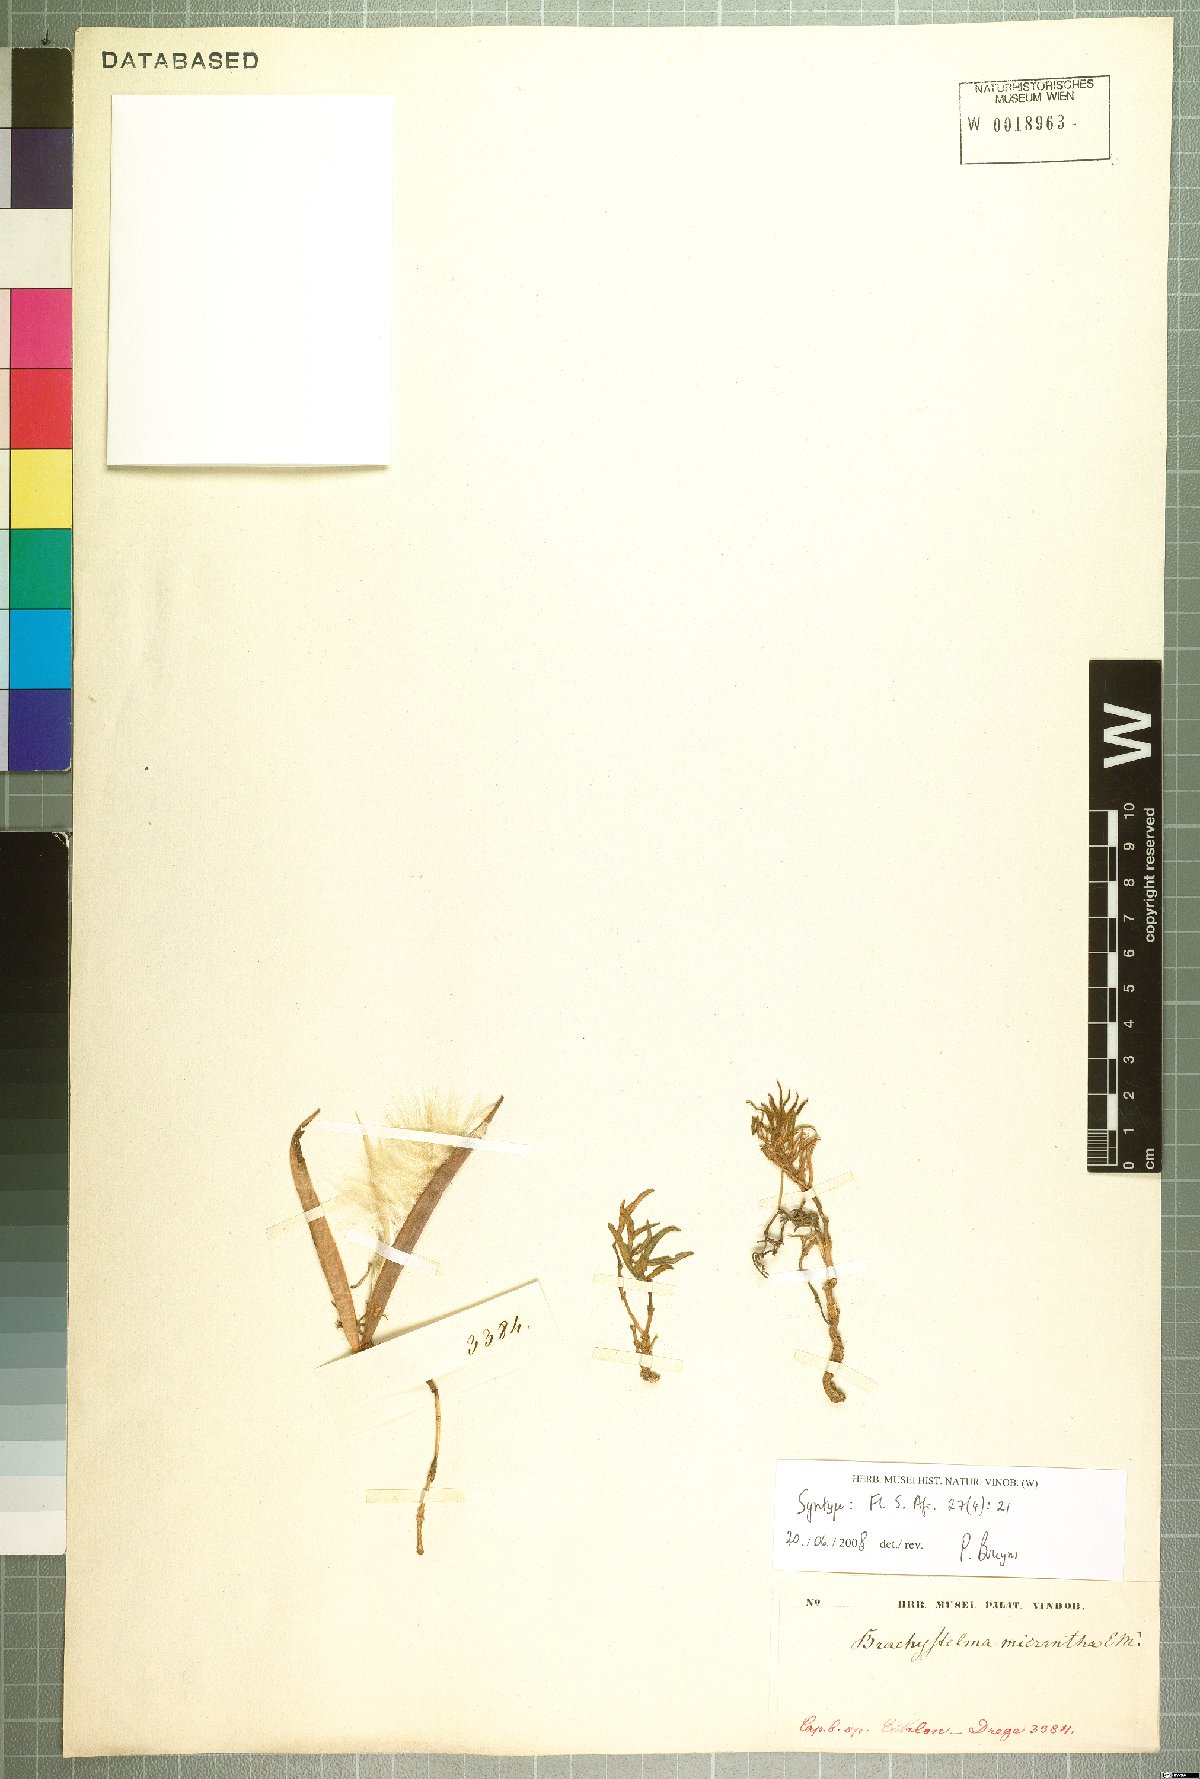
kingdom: Plantae
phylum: Tracheophyta
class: Magnoliopsida
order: Gentianales
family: Apocynaceae
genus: Ceropegia
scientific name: Ceropegia micriflora
